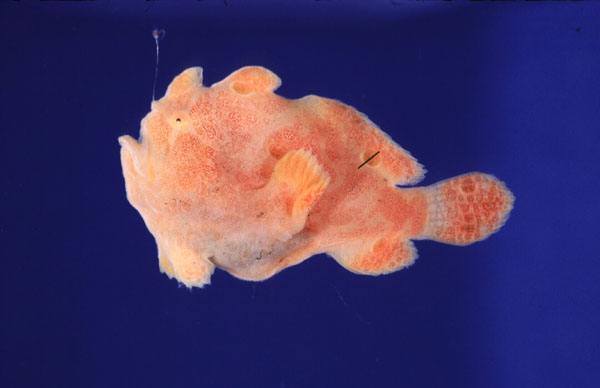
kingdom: Animalia
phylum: Chordata
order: Lophiiformes
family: Antennariidae
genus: Antennarius
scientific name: Antennarius commerson
